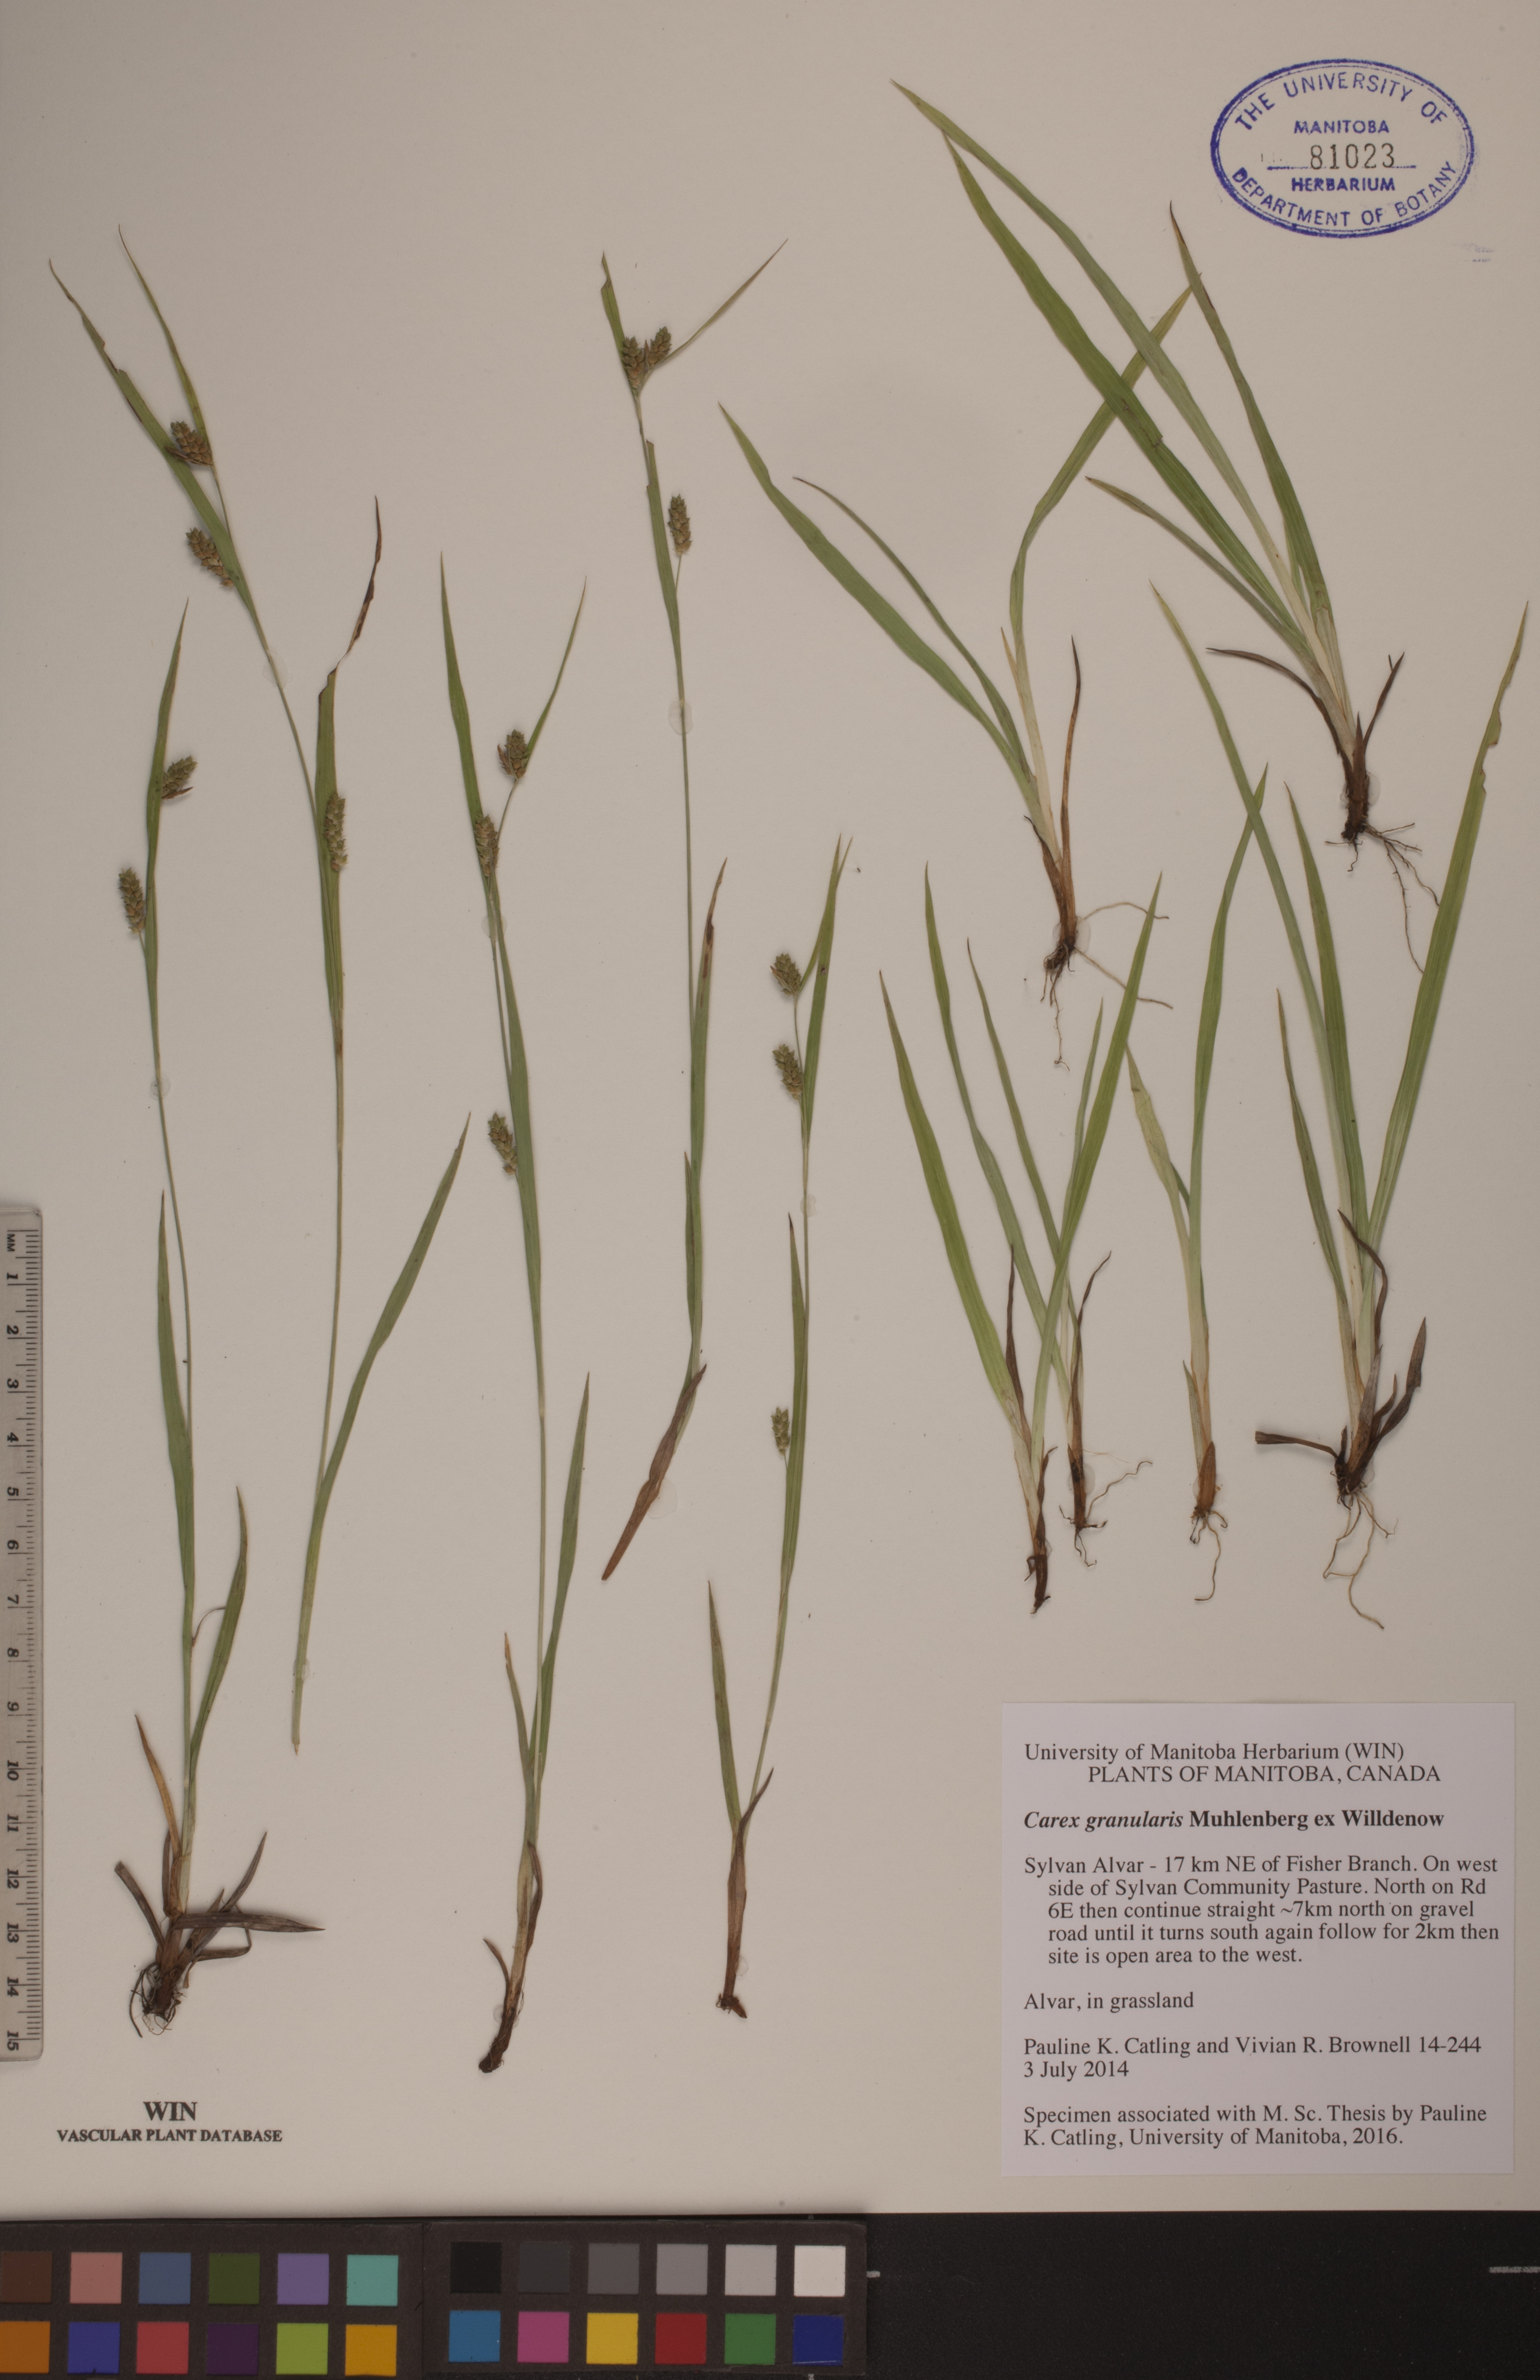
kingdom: Plantae
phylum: Tracheophyta
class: Liliopsida
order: Poales
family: Cyperaceae
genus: Carex
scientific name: Carex granularis
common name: Granular sedge
